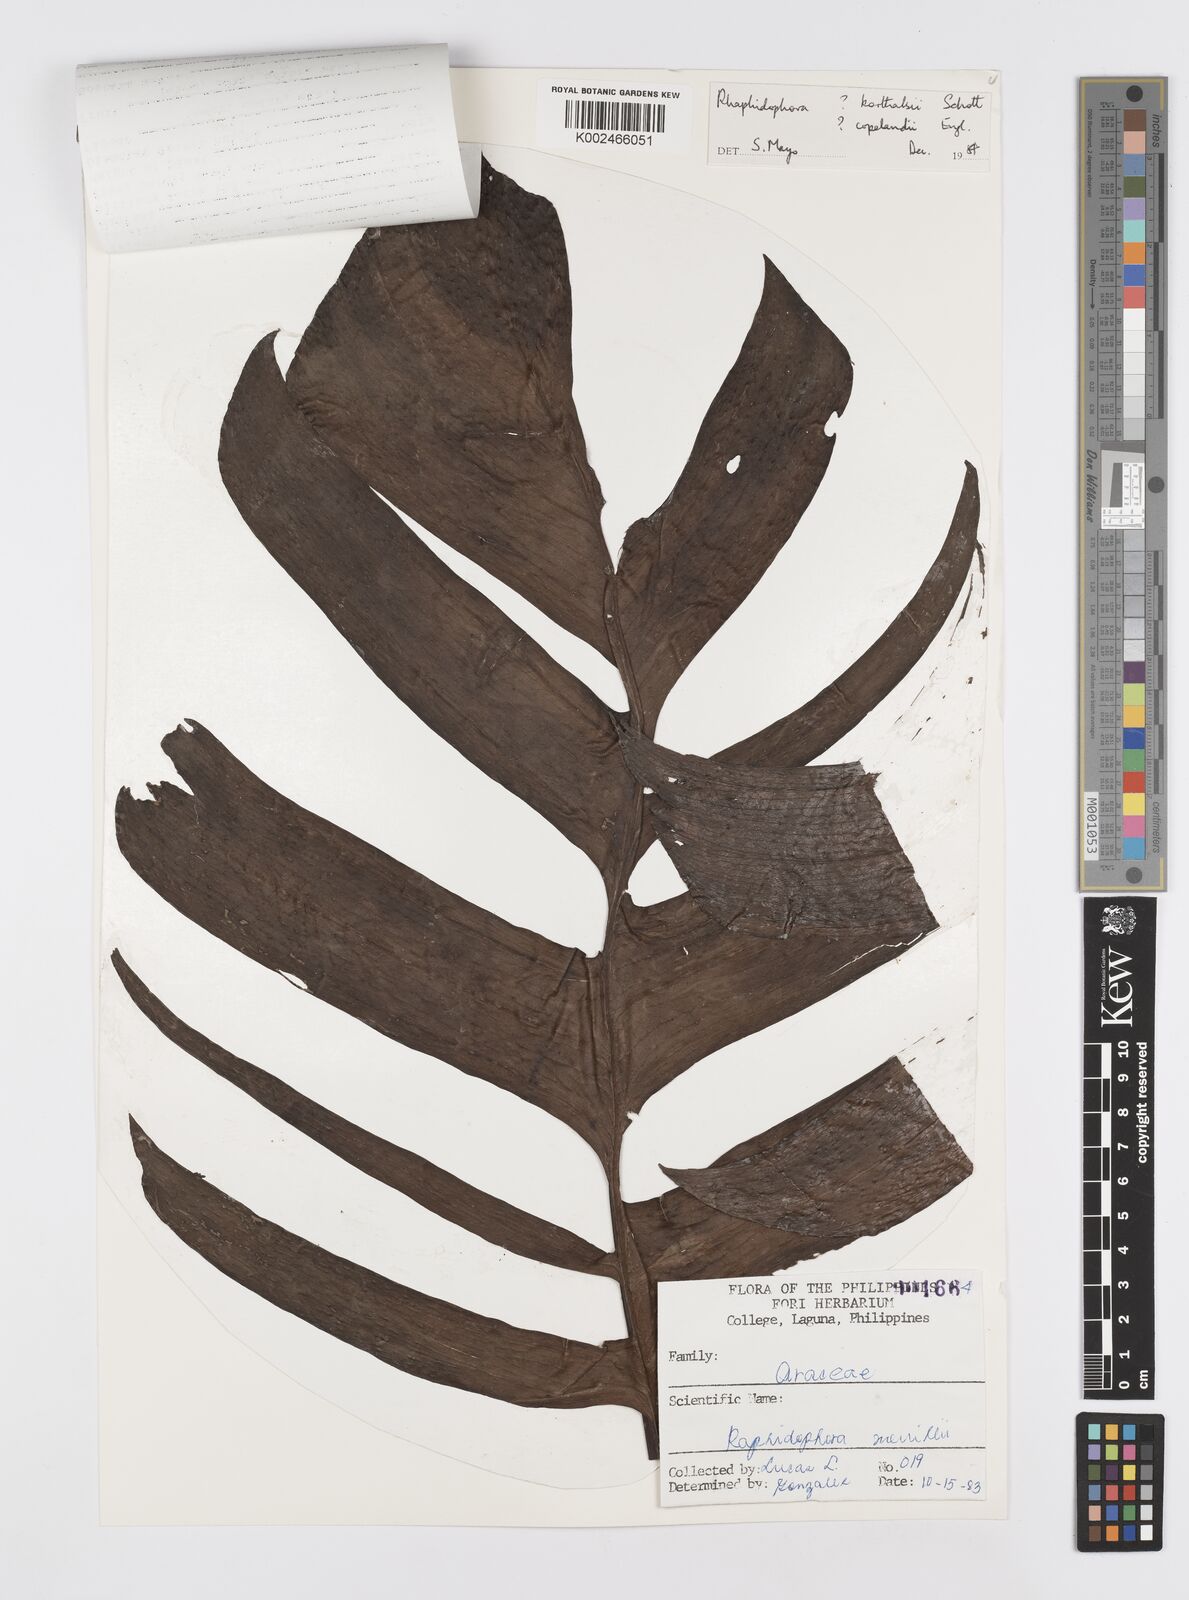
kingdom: Plantae
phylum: Tracheophyta
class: Liliopsida
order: Alismatales
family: Araceae
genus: Rhaphidophora
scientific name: Rhaphidophora korthalsii
